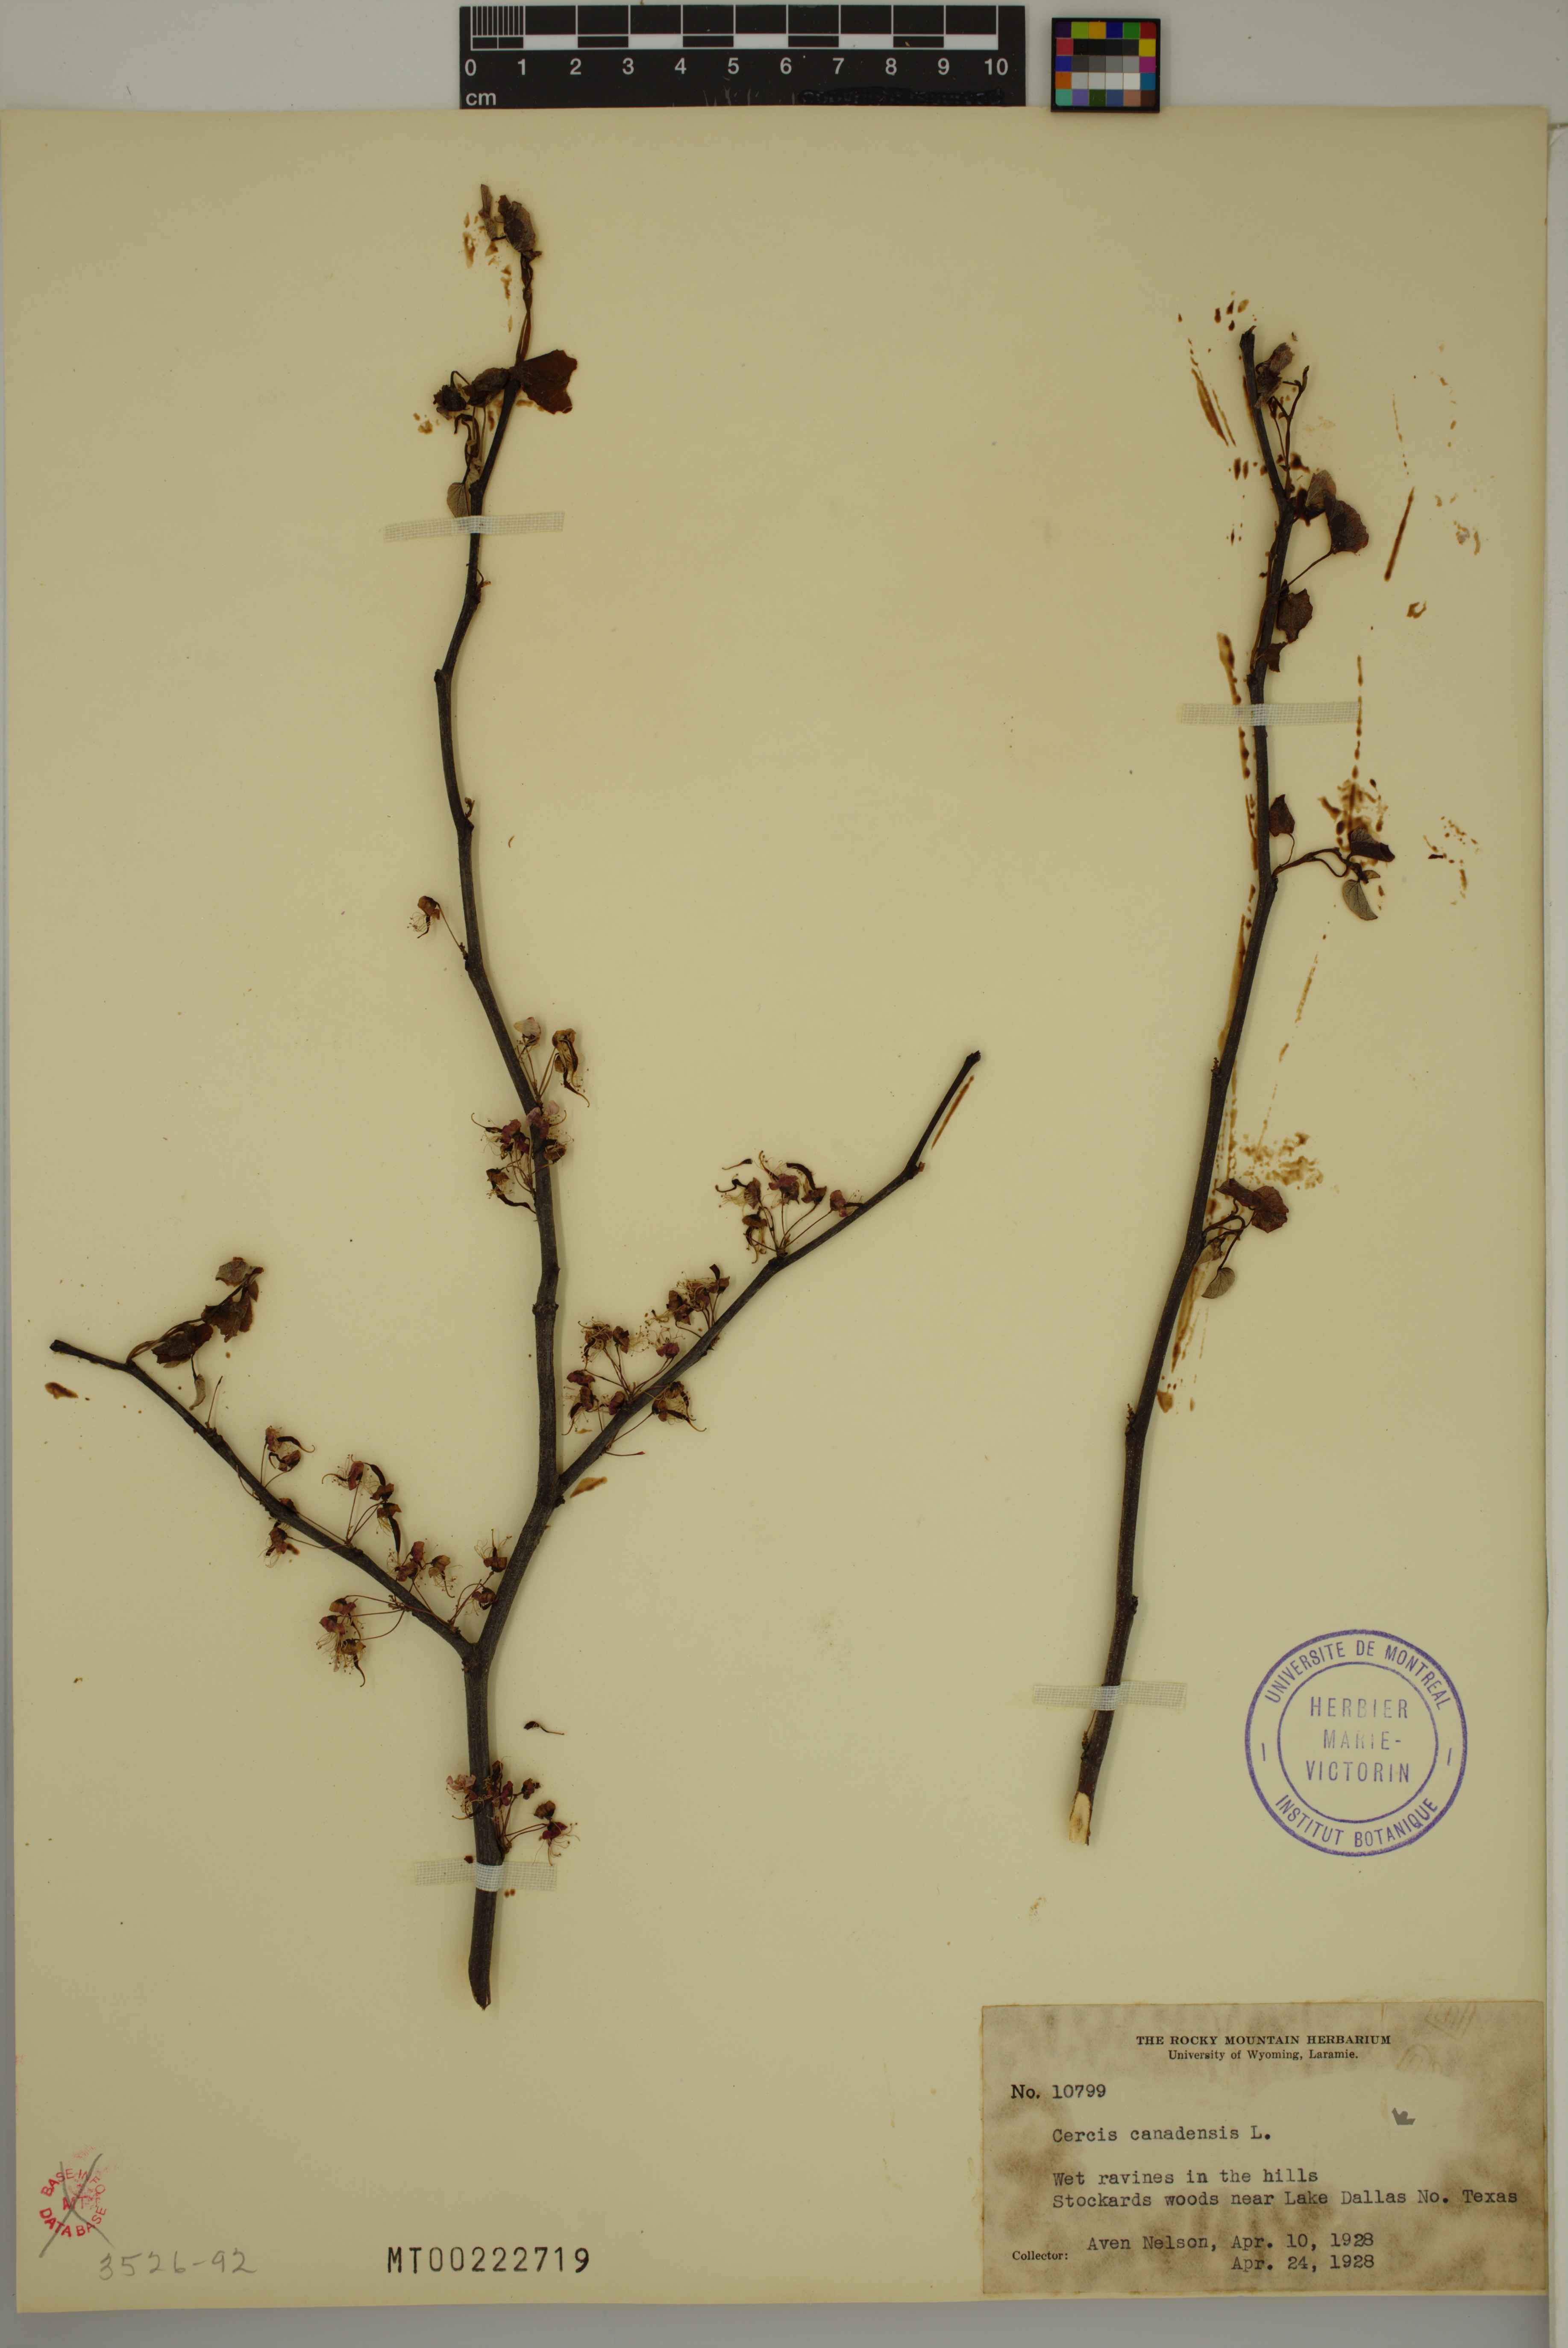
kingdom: Plantae
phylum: Tracheophyta
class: Magnoliopsida
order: Fabales
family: Fabaceae
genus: Cercis
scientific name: Cercis canadensis
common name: Eastern redbud
